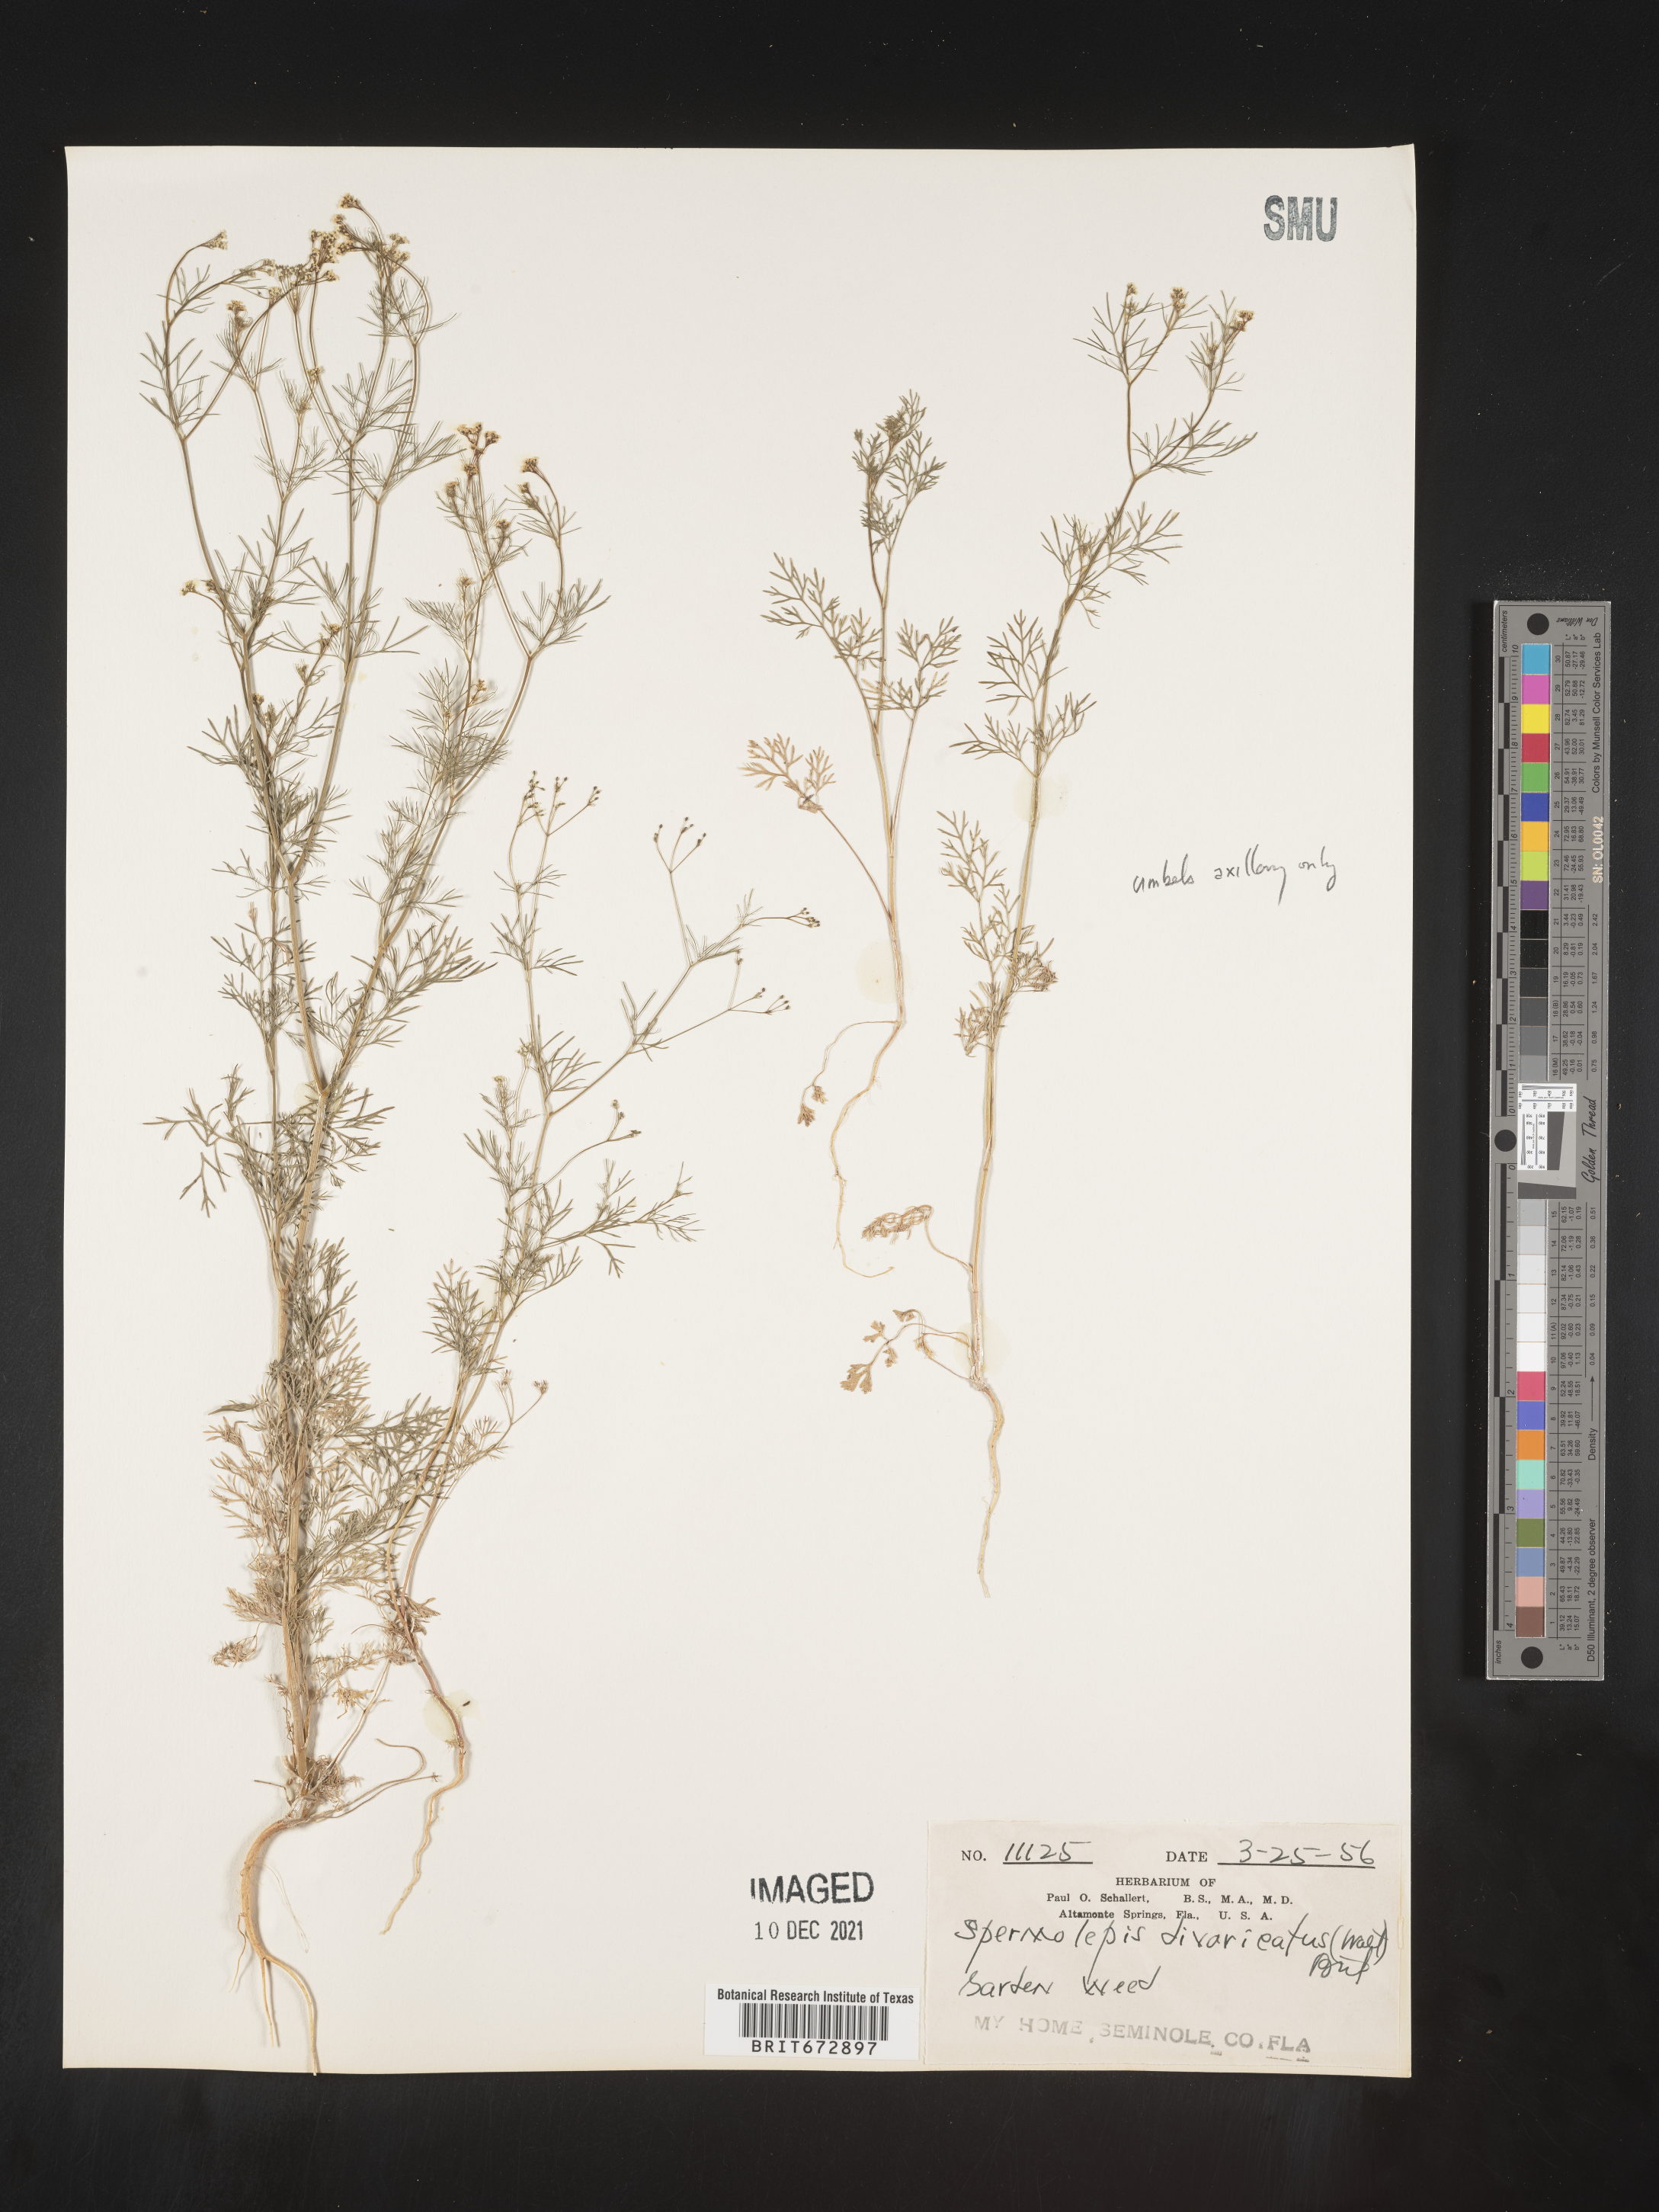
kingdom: Plantae
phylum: Tracheophyta
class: Magnoliopsida
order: Apiales
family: Apiaceae
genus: Spermolepis
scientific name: Spermolepis divaricata
